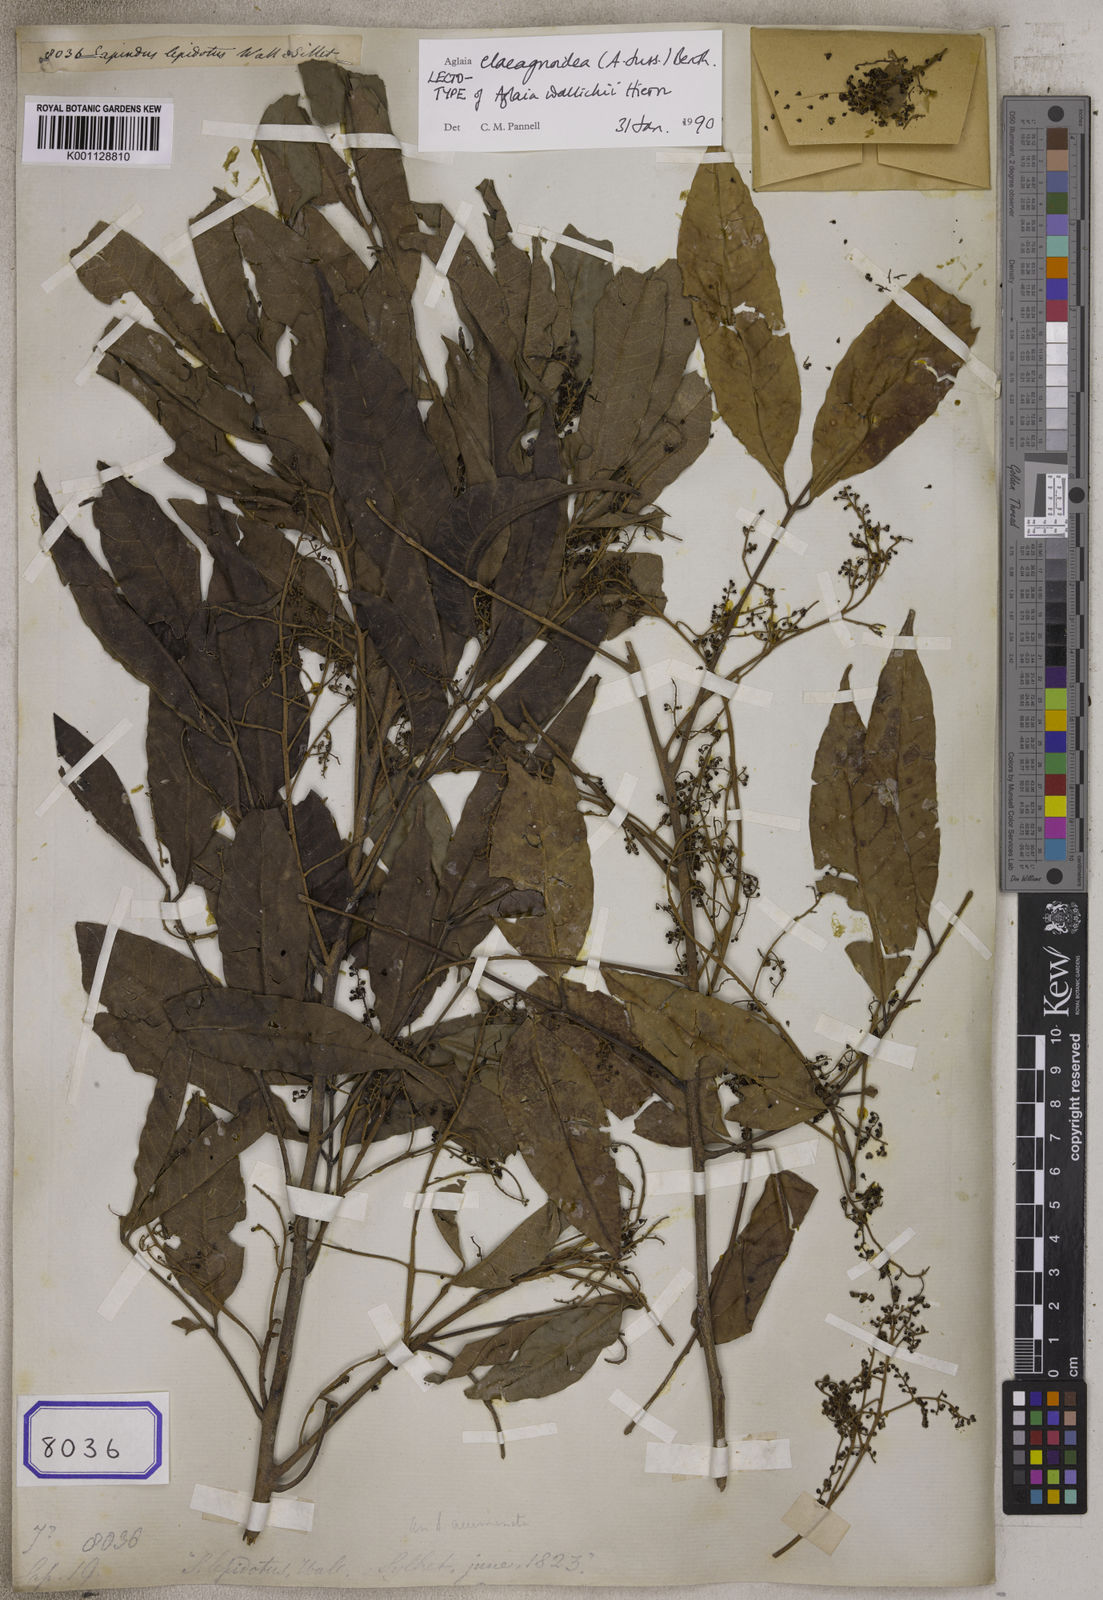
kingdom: Plantae
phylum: Tracheophyta
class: Magnoliopsida
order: Sapindales
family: Meliaceae
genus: Aglaia
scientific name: Aglaia elaeagnoidea
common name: Droopyleaf
